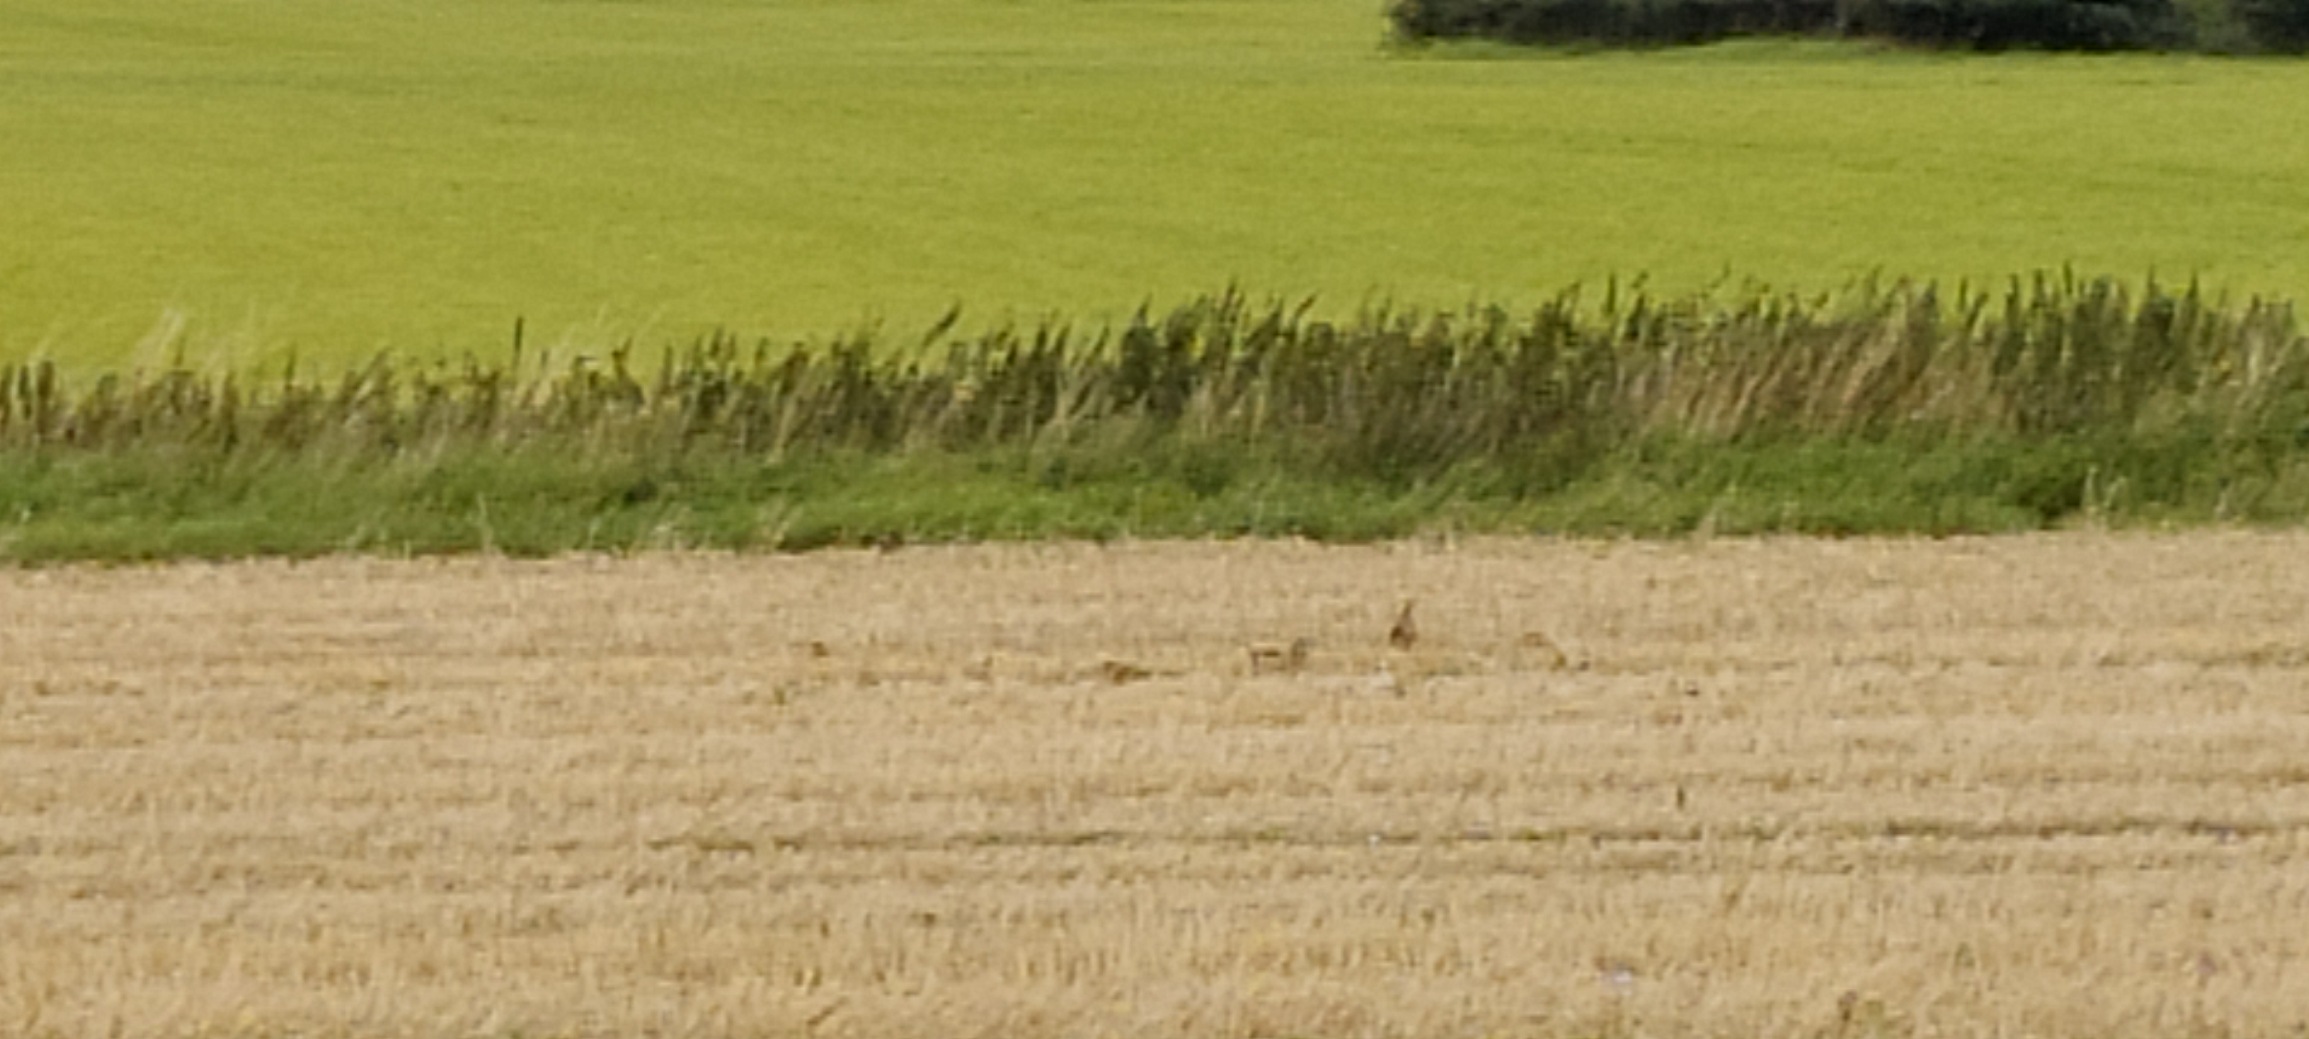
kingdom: Animalia
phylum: Chordata
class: Aves
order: Galliformes
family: Phasianidae
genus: Perdix
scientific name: Perdix perdix
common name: Agerhøne
